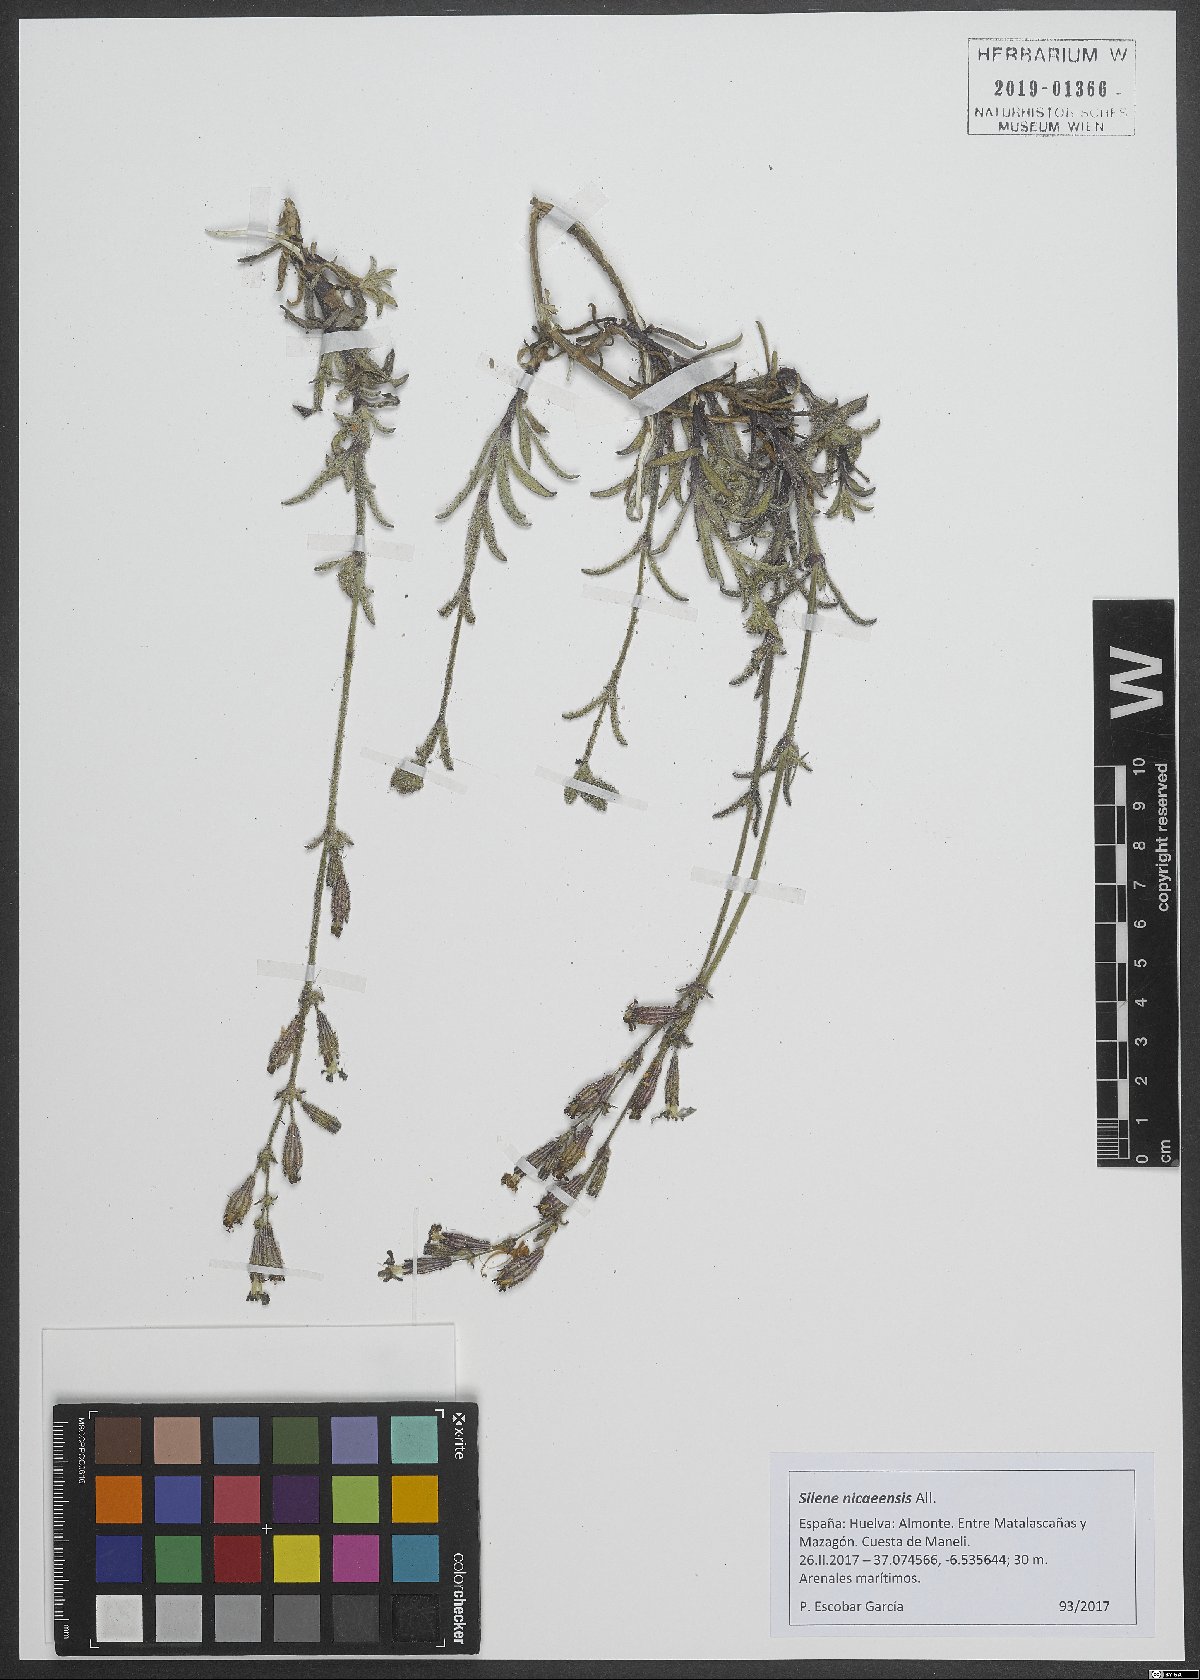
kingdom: Plantae
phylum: Tracheophyta
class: Magnoliopsida
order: Caryophyllales
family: Caryophyllaceae
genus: Silene
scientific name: Silene nicaeensis
